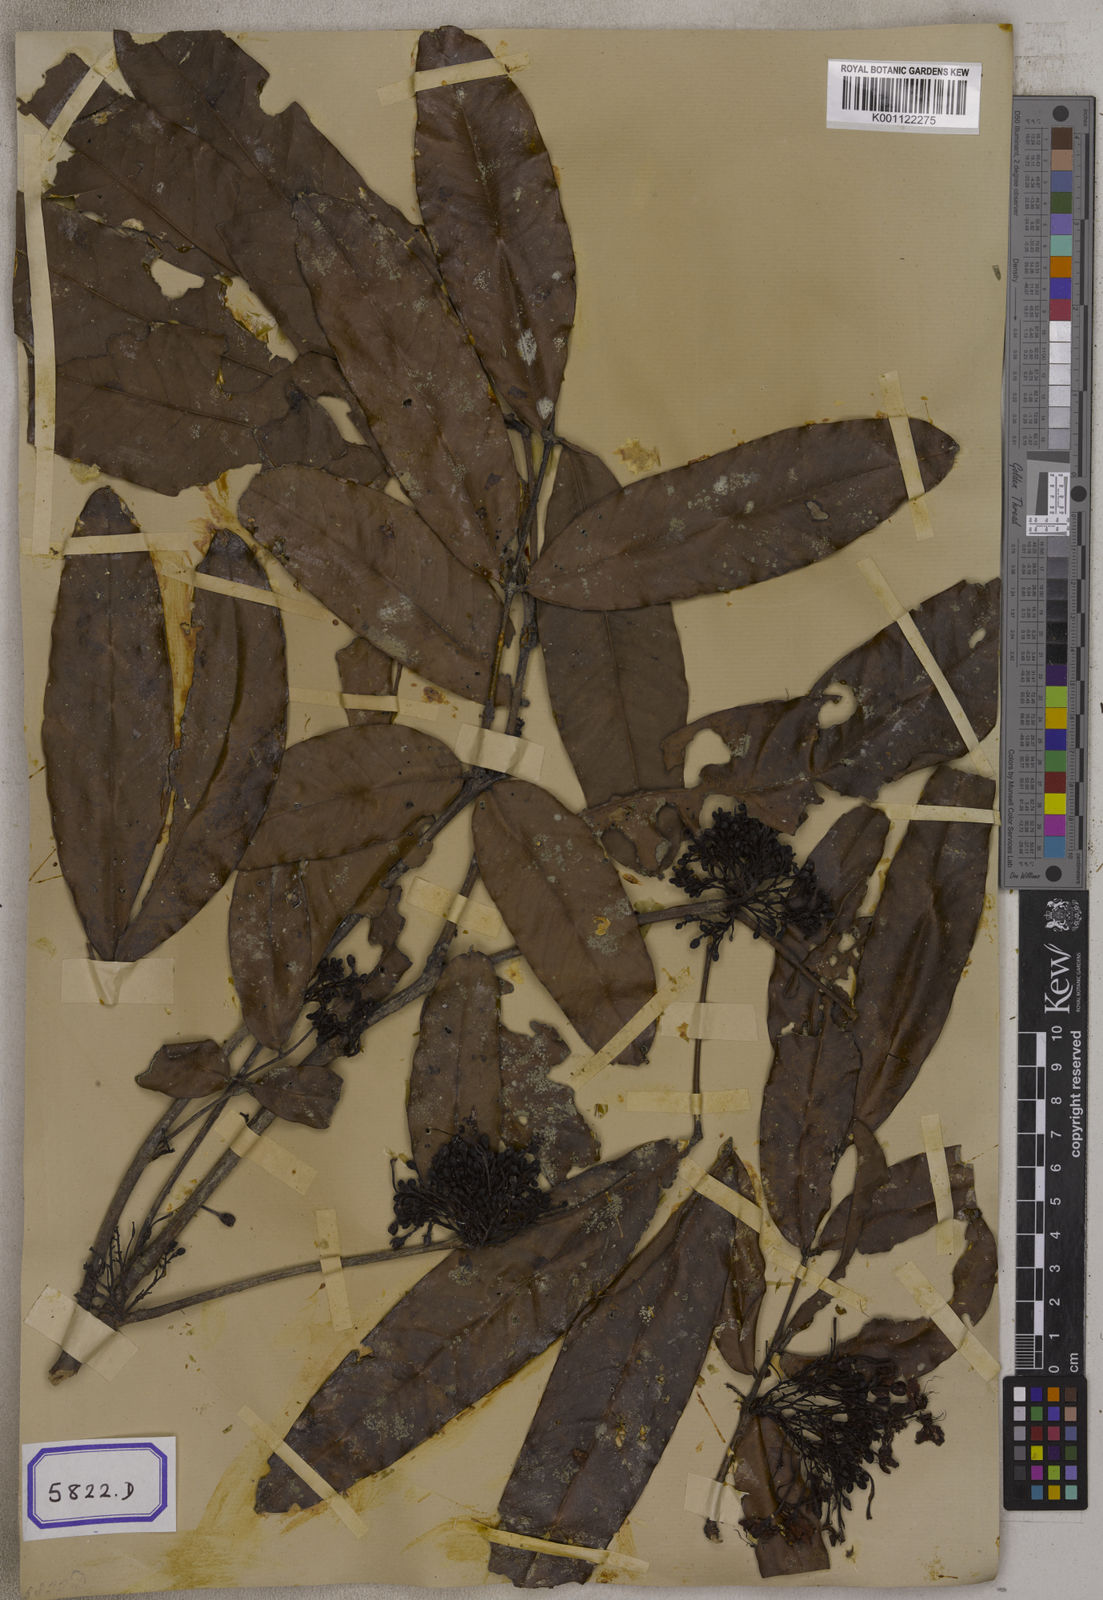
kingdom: Plantae
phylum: Tracheophyta
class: Magnoliopsida
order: Fabales
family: Fabaceae
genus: Saraca
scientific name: Saraca asoca
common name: Asoka-tree
